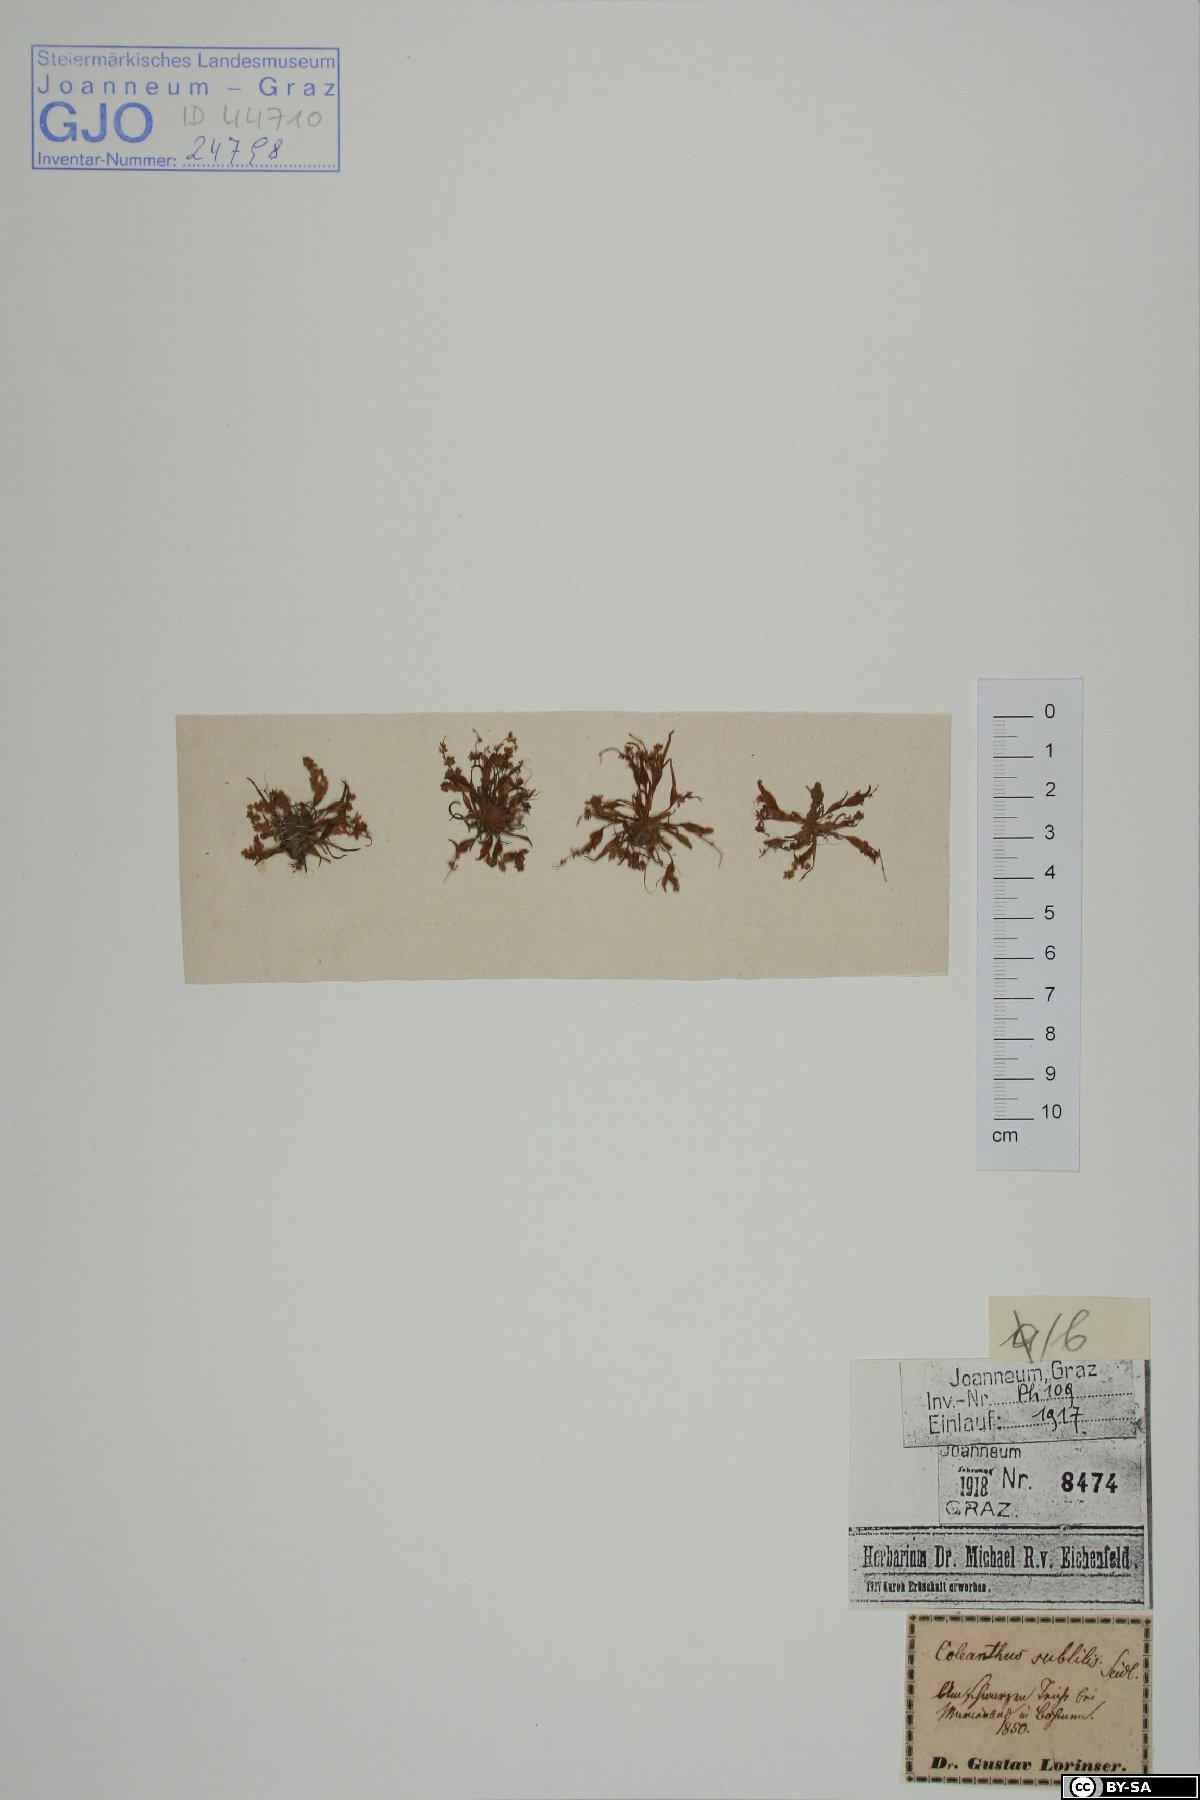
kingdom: Plantae
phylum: Tracheophyta
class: Liliopsida
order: Poales
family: Poaceae
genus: Coleanthus
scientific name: Coleanthus subtilis
